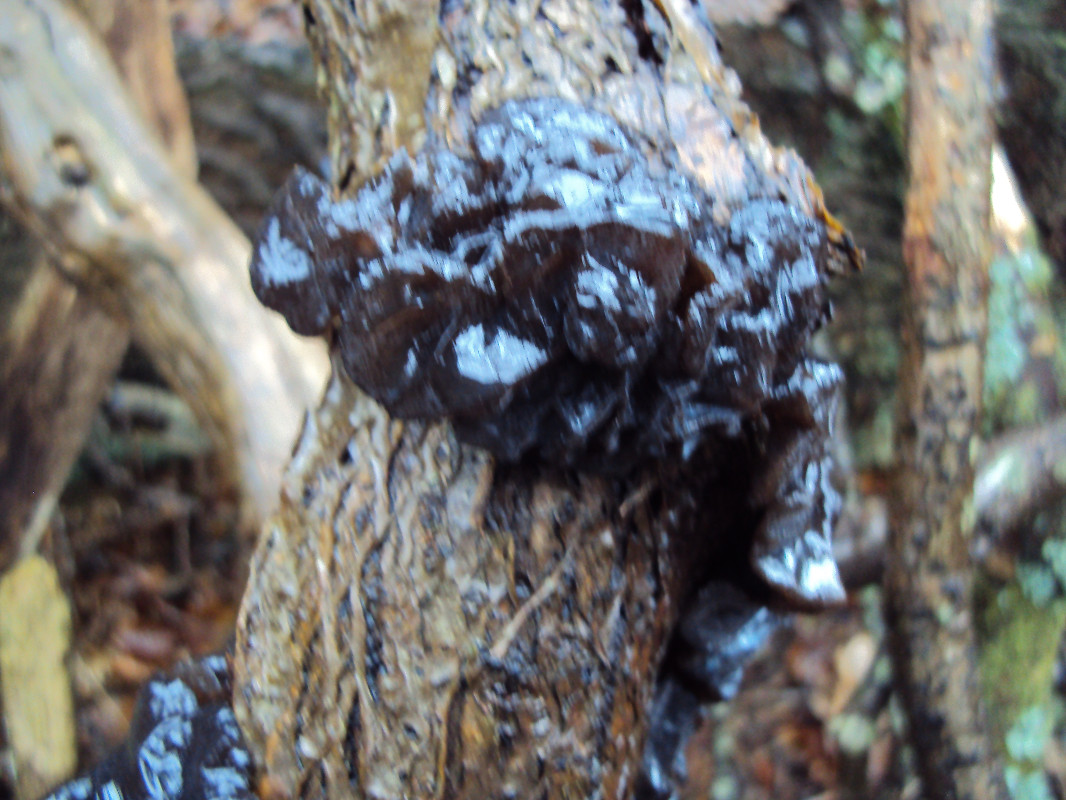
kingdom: Fungi
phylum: Basidiomycota
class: Agaricomycetes
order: Auriculariales
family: Auriculariaceae
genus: Exidia
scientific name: Exidia glandulosa
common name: ege-bævretop
